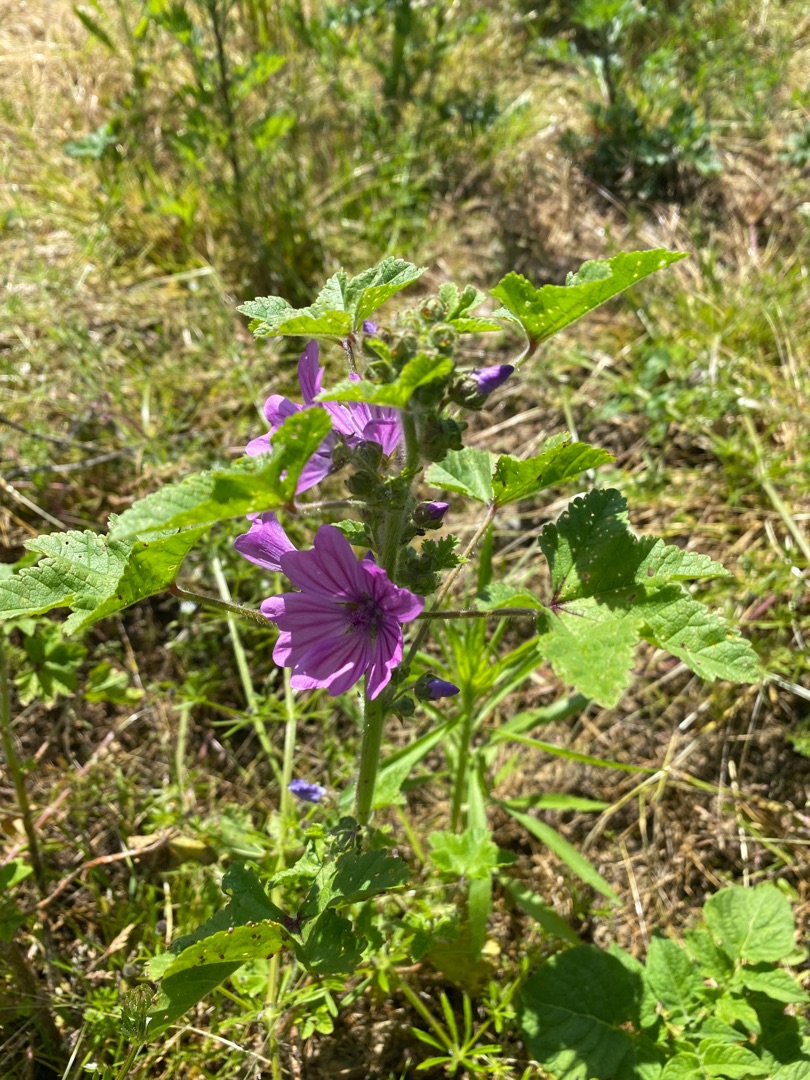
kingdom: Plantae
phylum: Tracheophyta
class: Magnoliopsida
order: Malvales
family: Malvaceae
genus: Malva
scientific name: Malva sylvestris
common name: Almindelig katost
